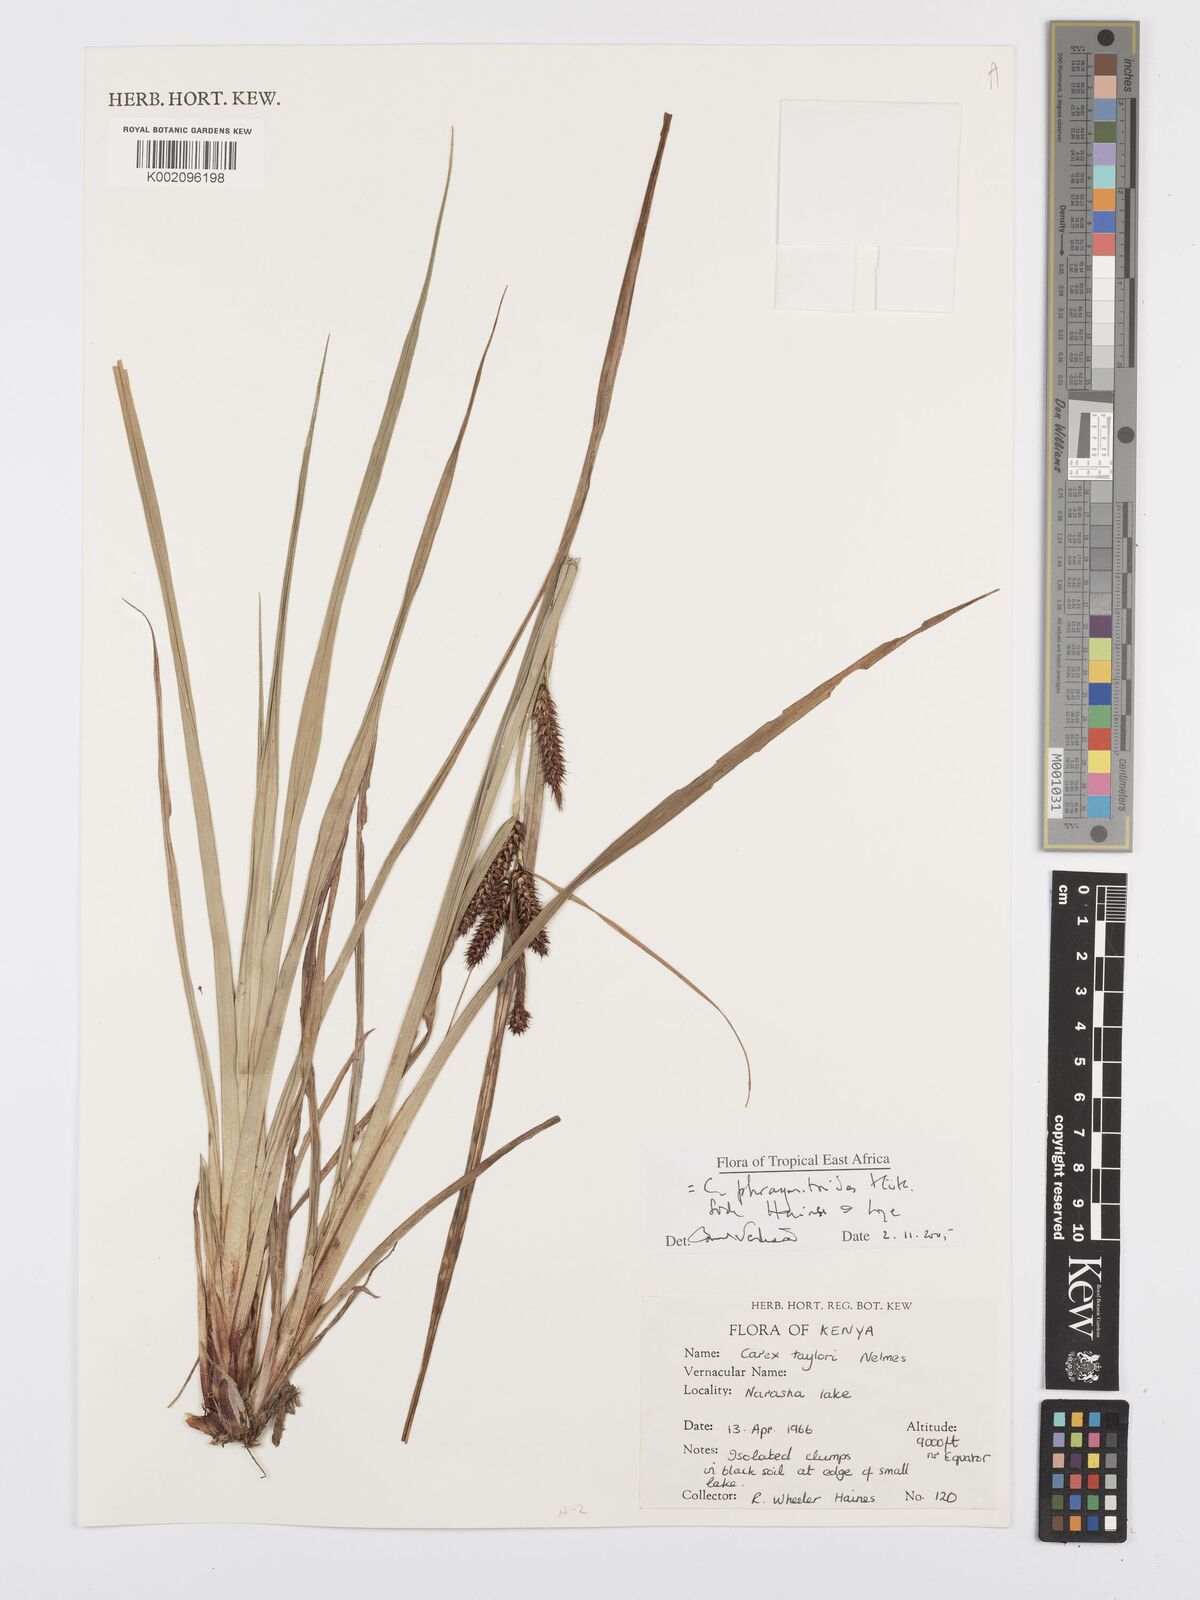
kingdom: Plantae
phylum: Tracheophyta
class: Liliopsida
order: Poales
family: Cyperaceae
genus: Carex
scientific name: Carex phragmitoides
